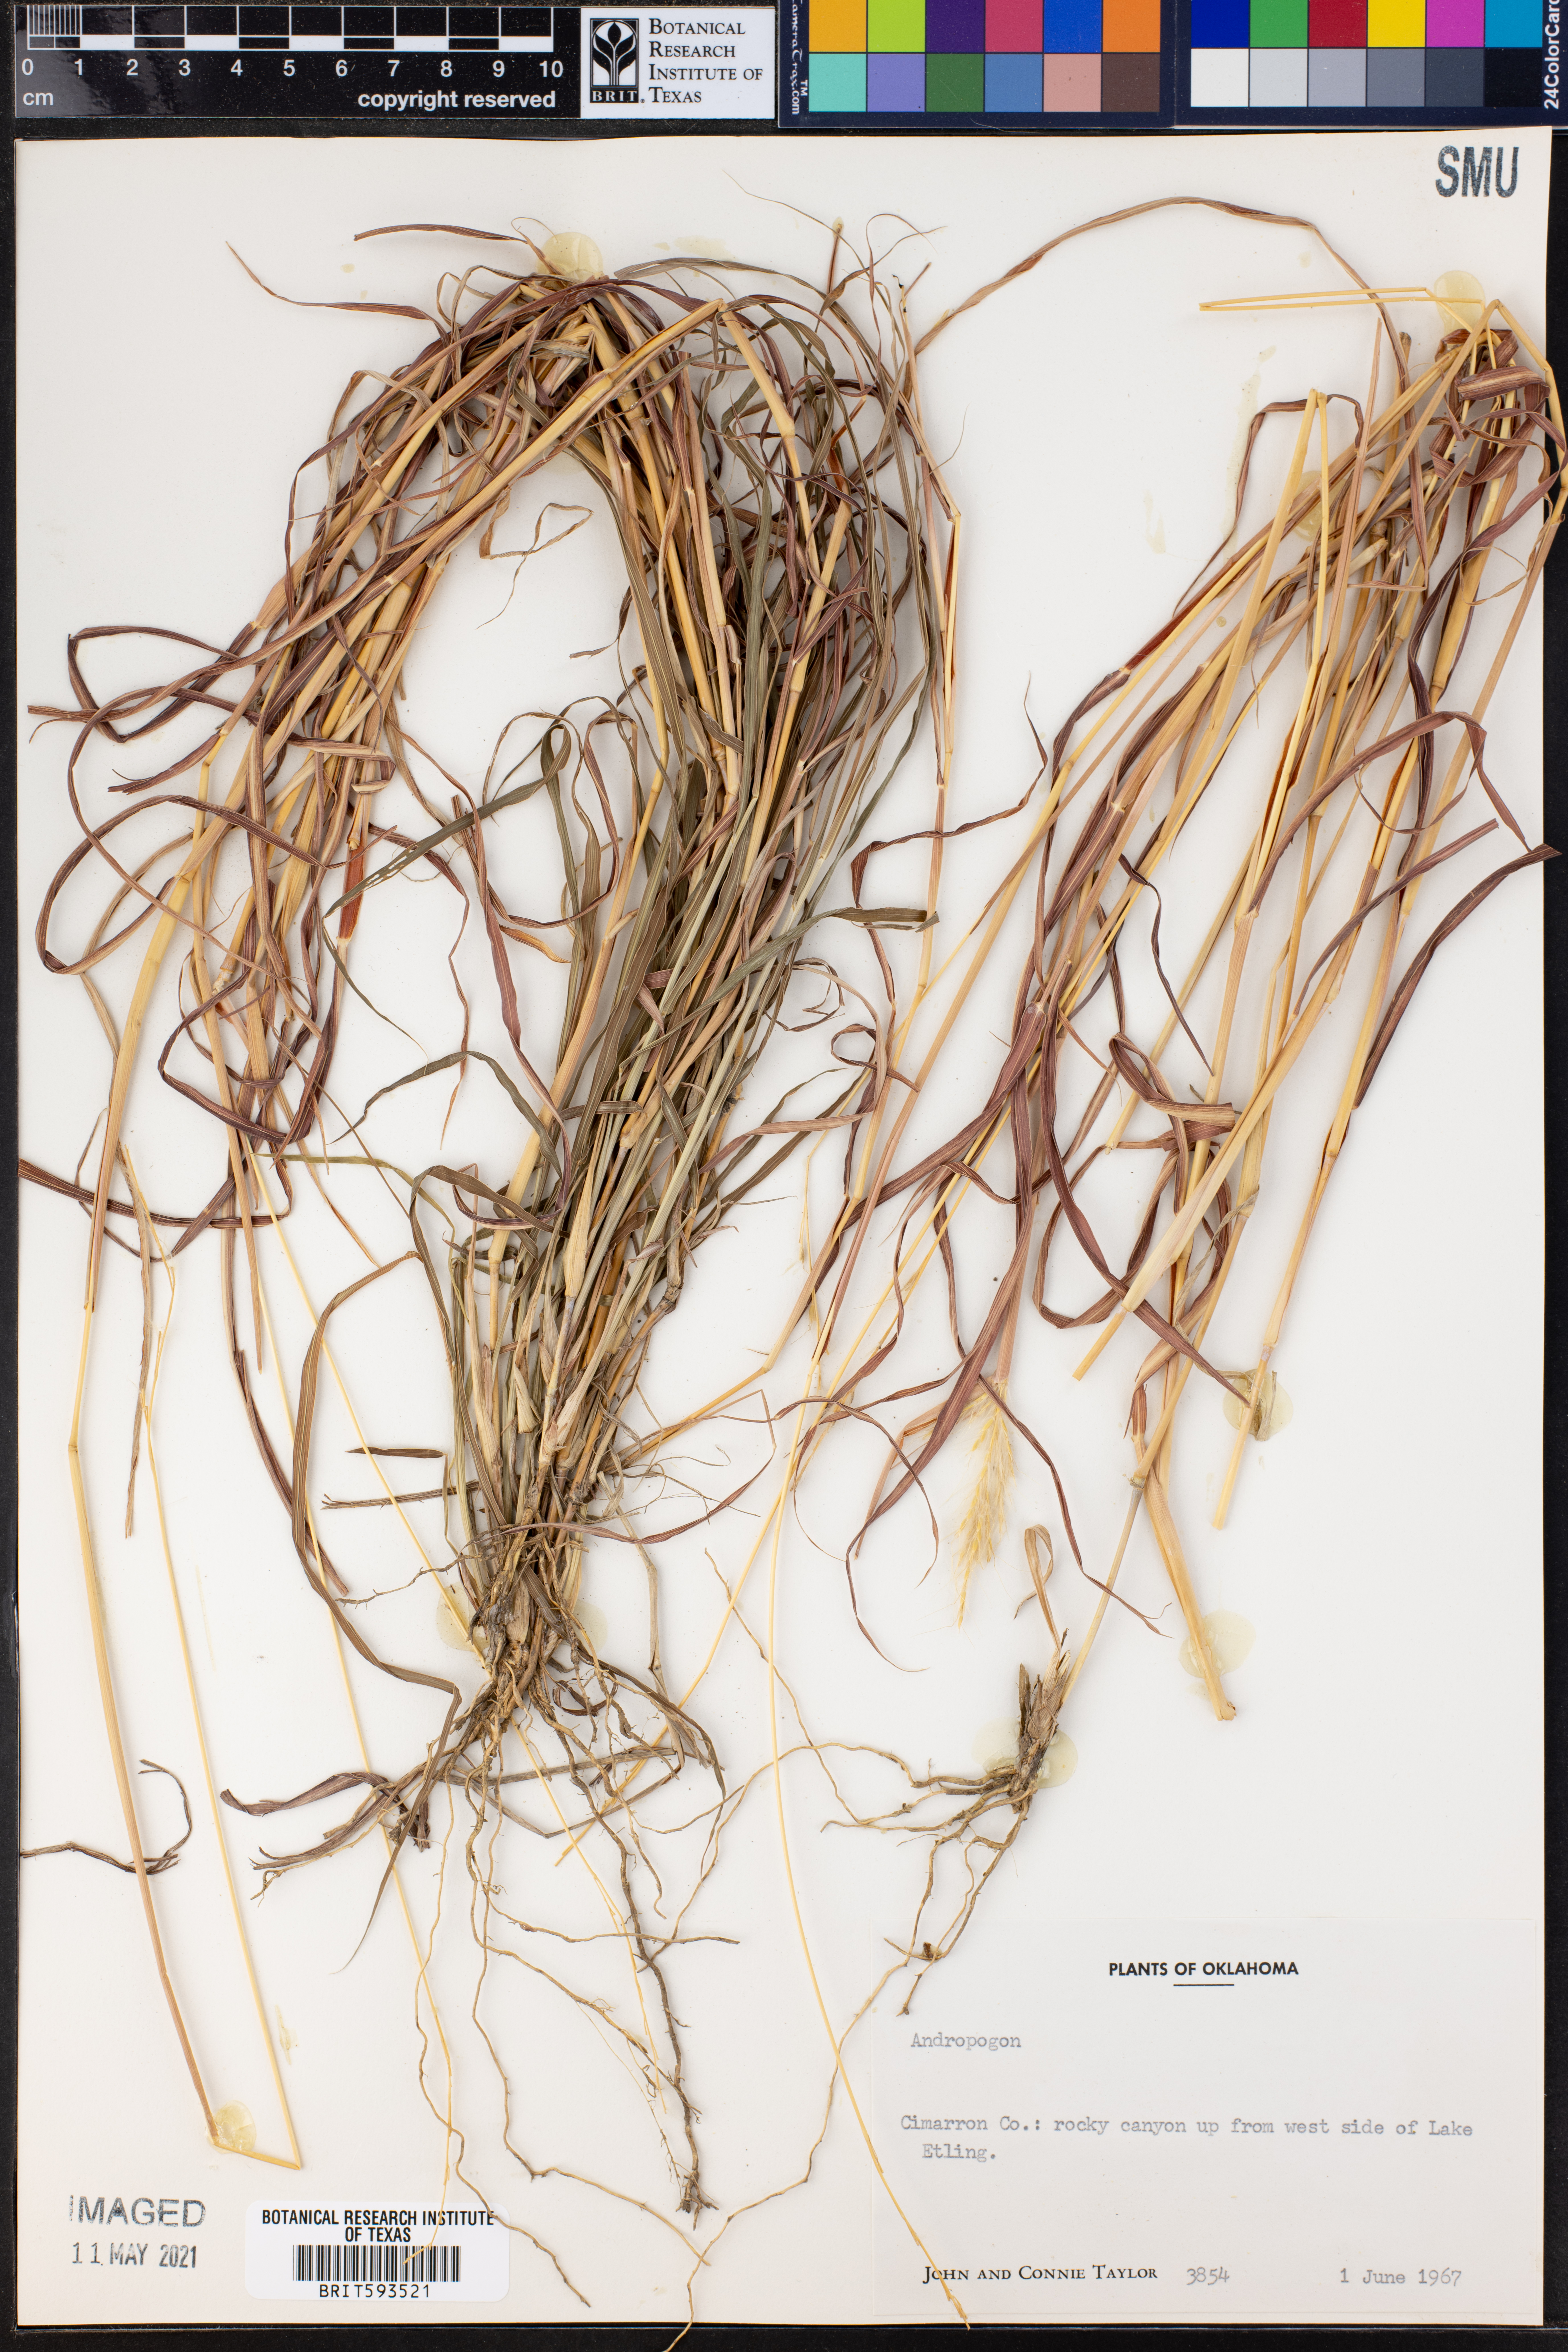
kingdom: Plantae
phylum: Tracheophyta
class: Liliopsida
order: Poales
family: Poaceae
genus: Andropogon
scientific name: Andropogon
